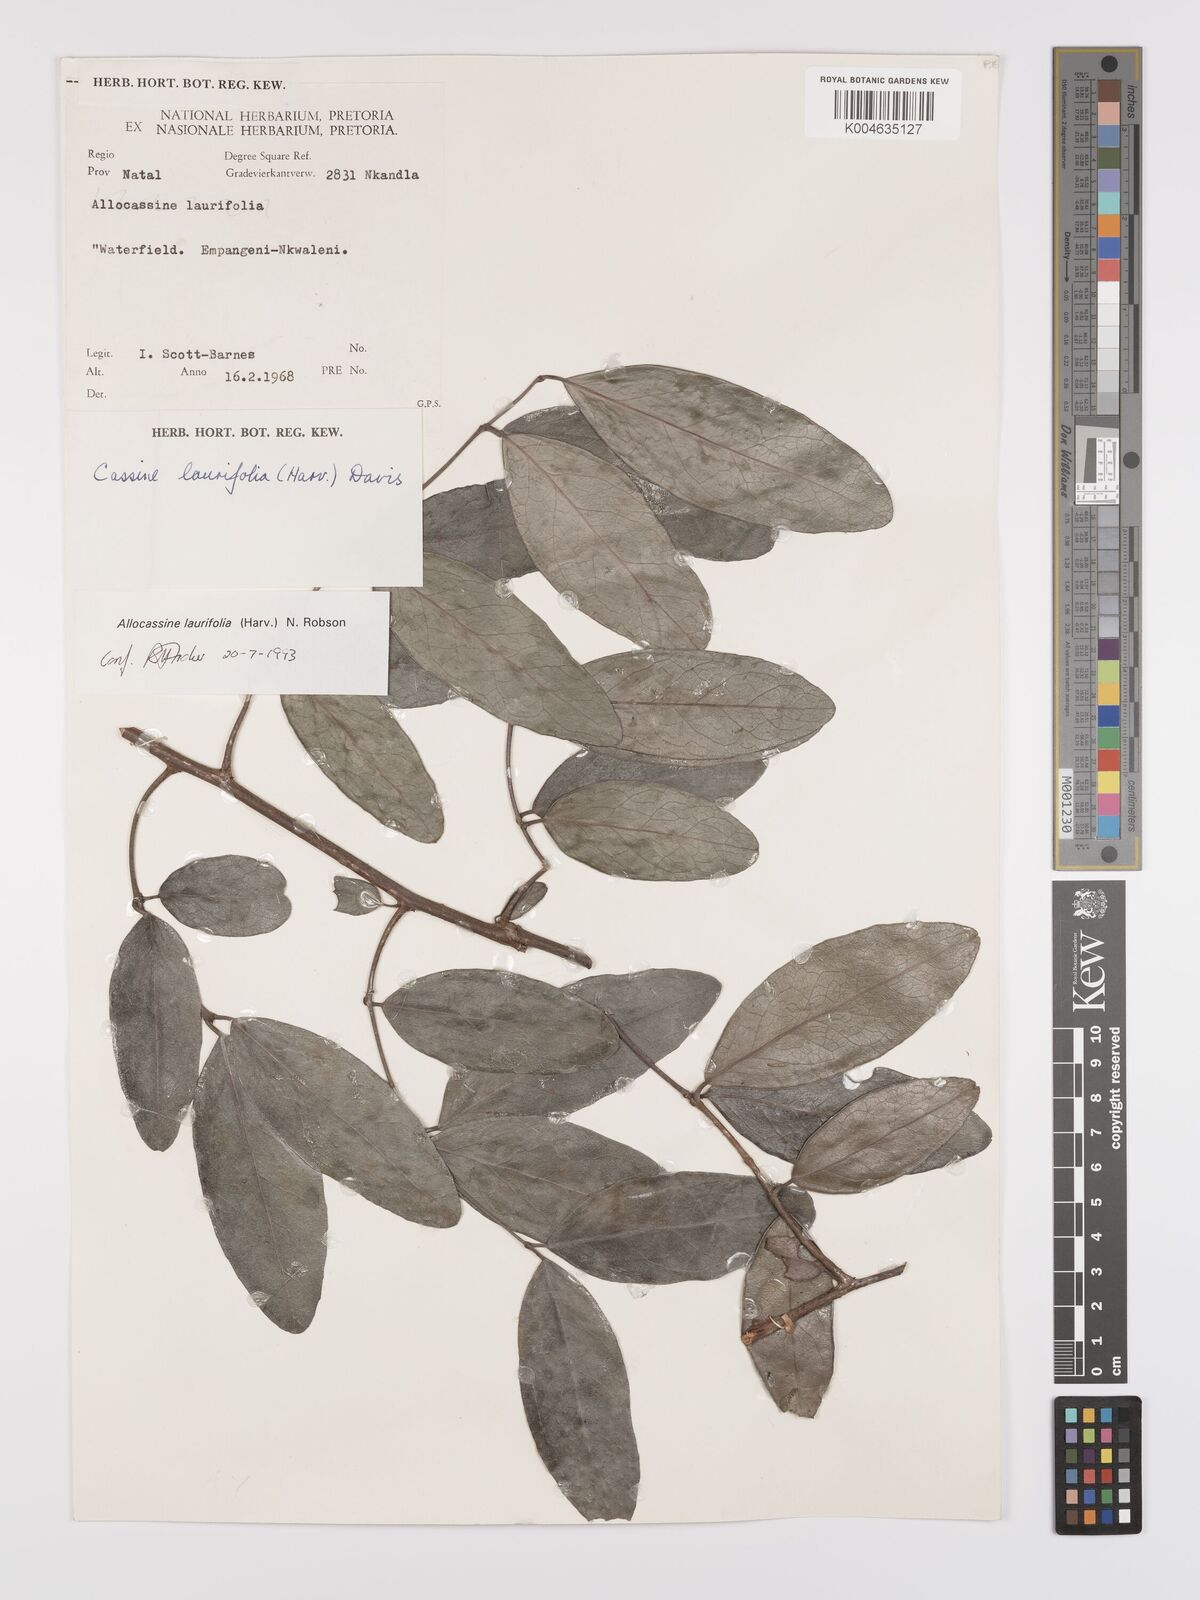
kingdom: Plantae
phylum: Tracheophyta
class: Magnoliopsida
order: Celastrales
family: Celastraceae
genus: Allocassine
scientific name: Allocassine
